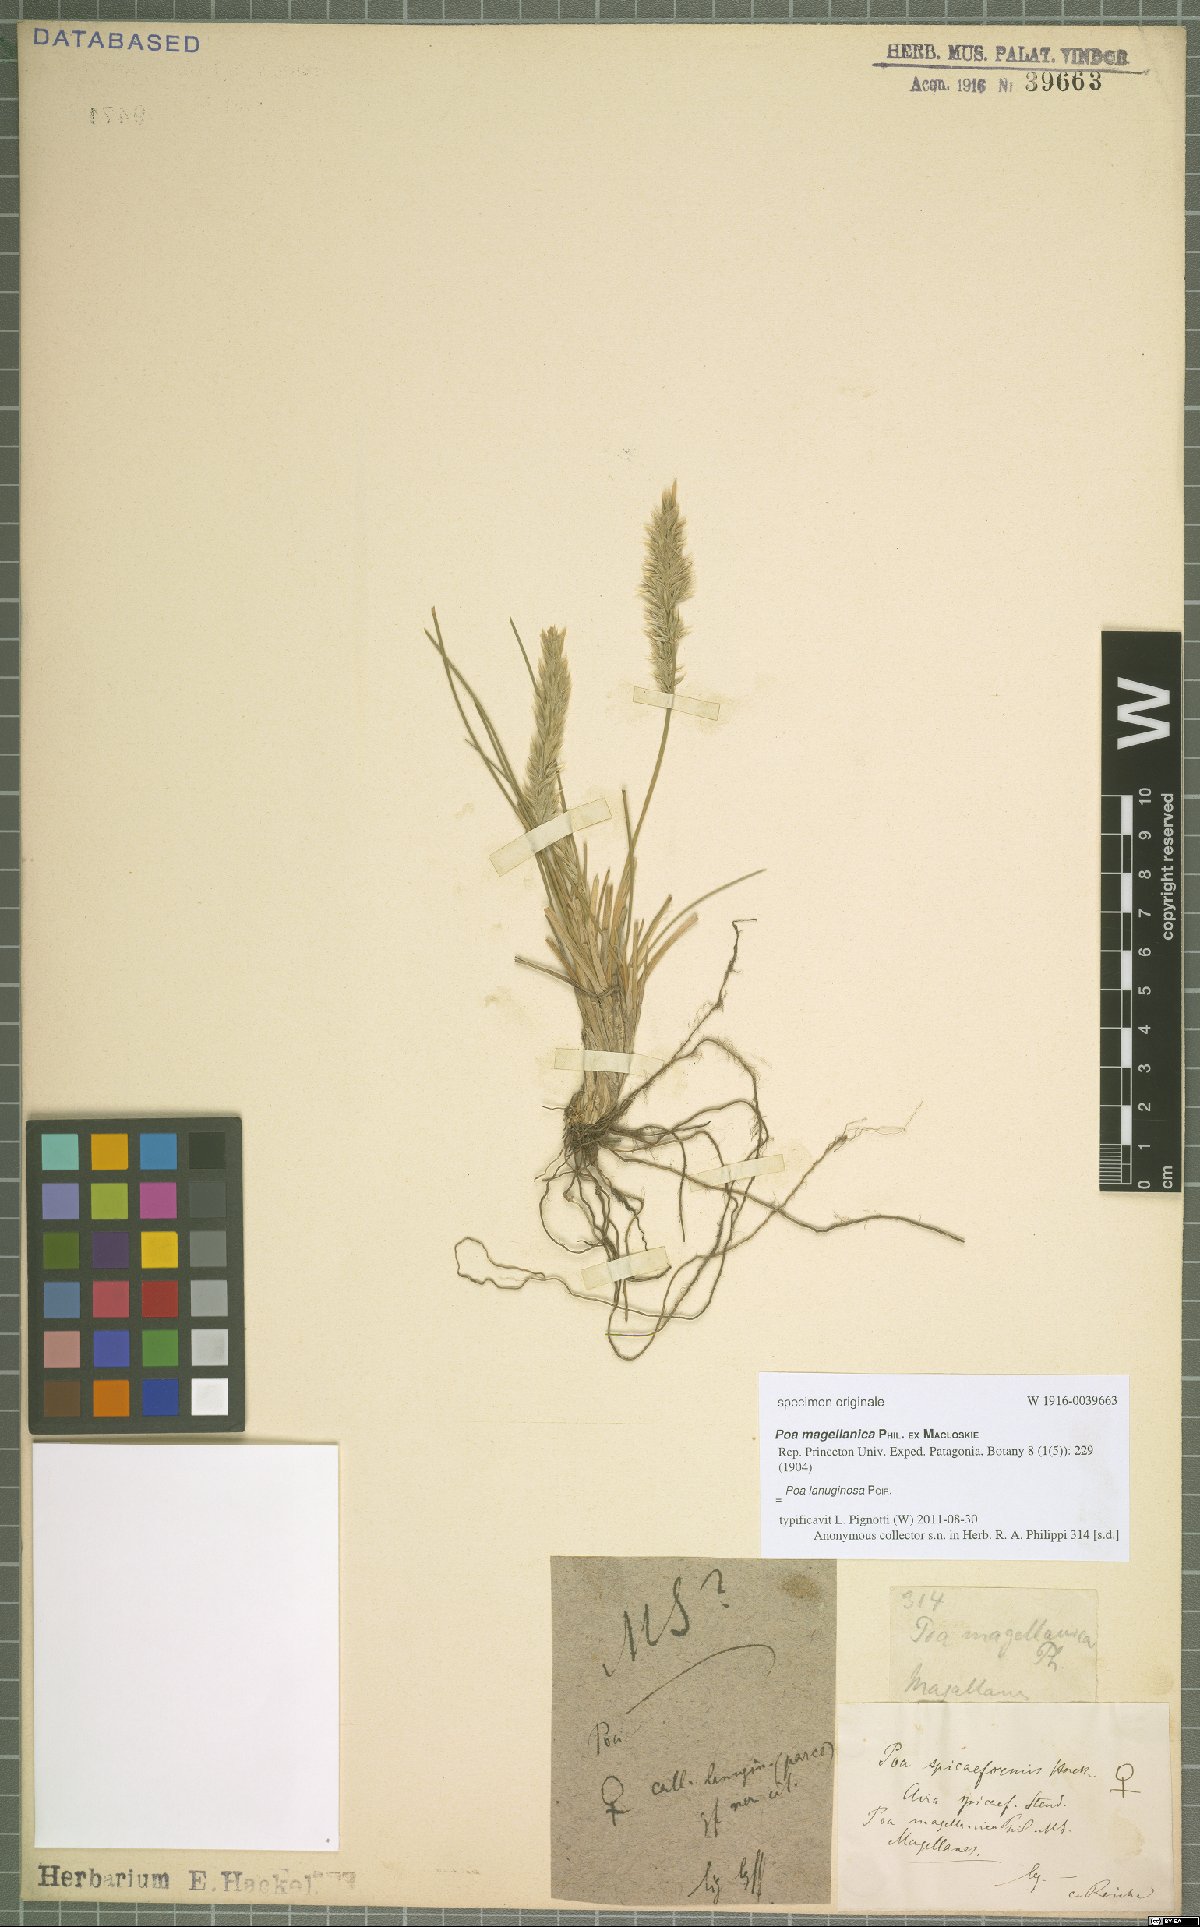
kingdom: Plantae
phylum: Tracheophyta
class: Liliopsida
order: Poales
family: Poaceae
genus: Poa
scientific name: Poa lanuginosa
